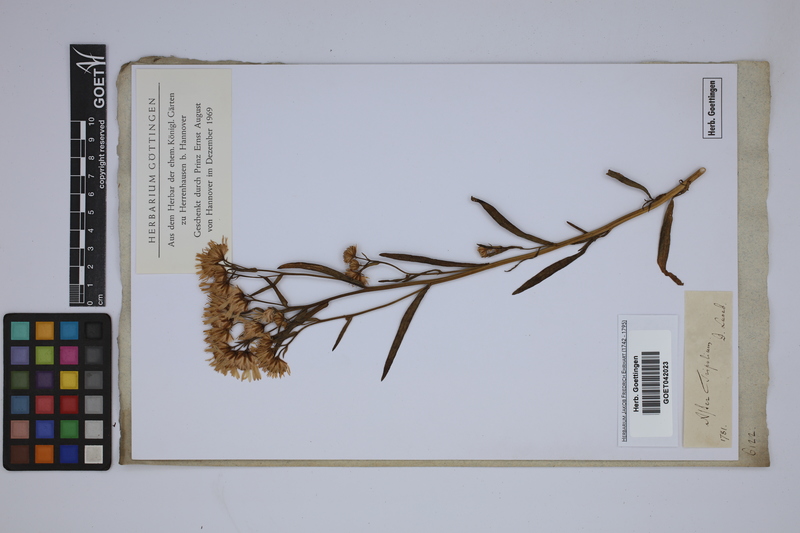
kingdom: Plantae
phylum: Tracheophyta
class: Magnoliopsida
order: Asterales
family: Asteraceae
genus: Tripolium
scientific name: Tripolium pannonicum
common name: Sea aster
